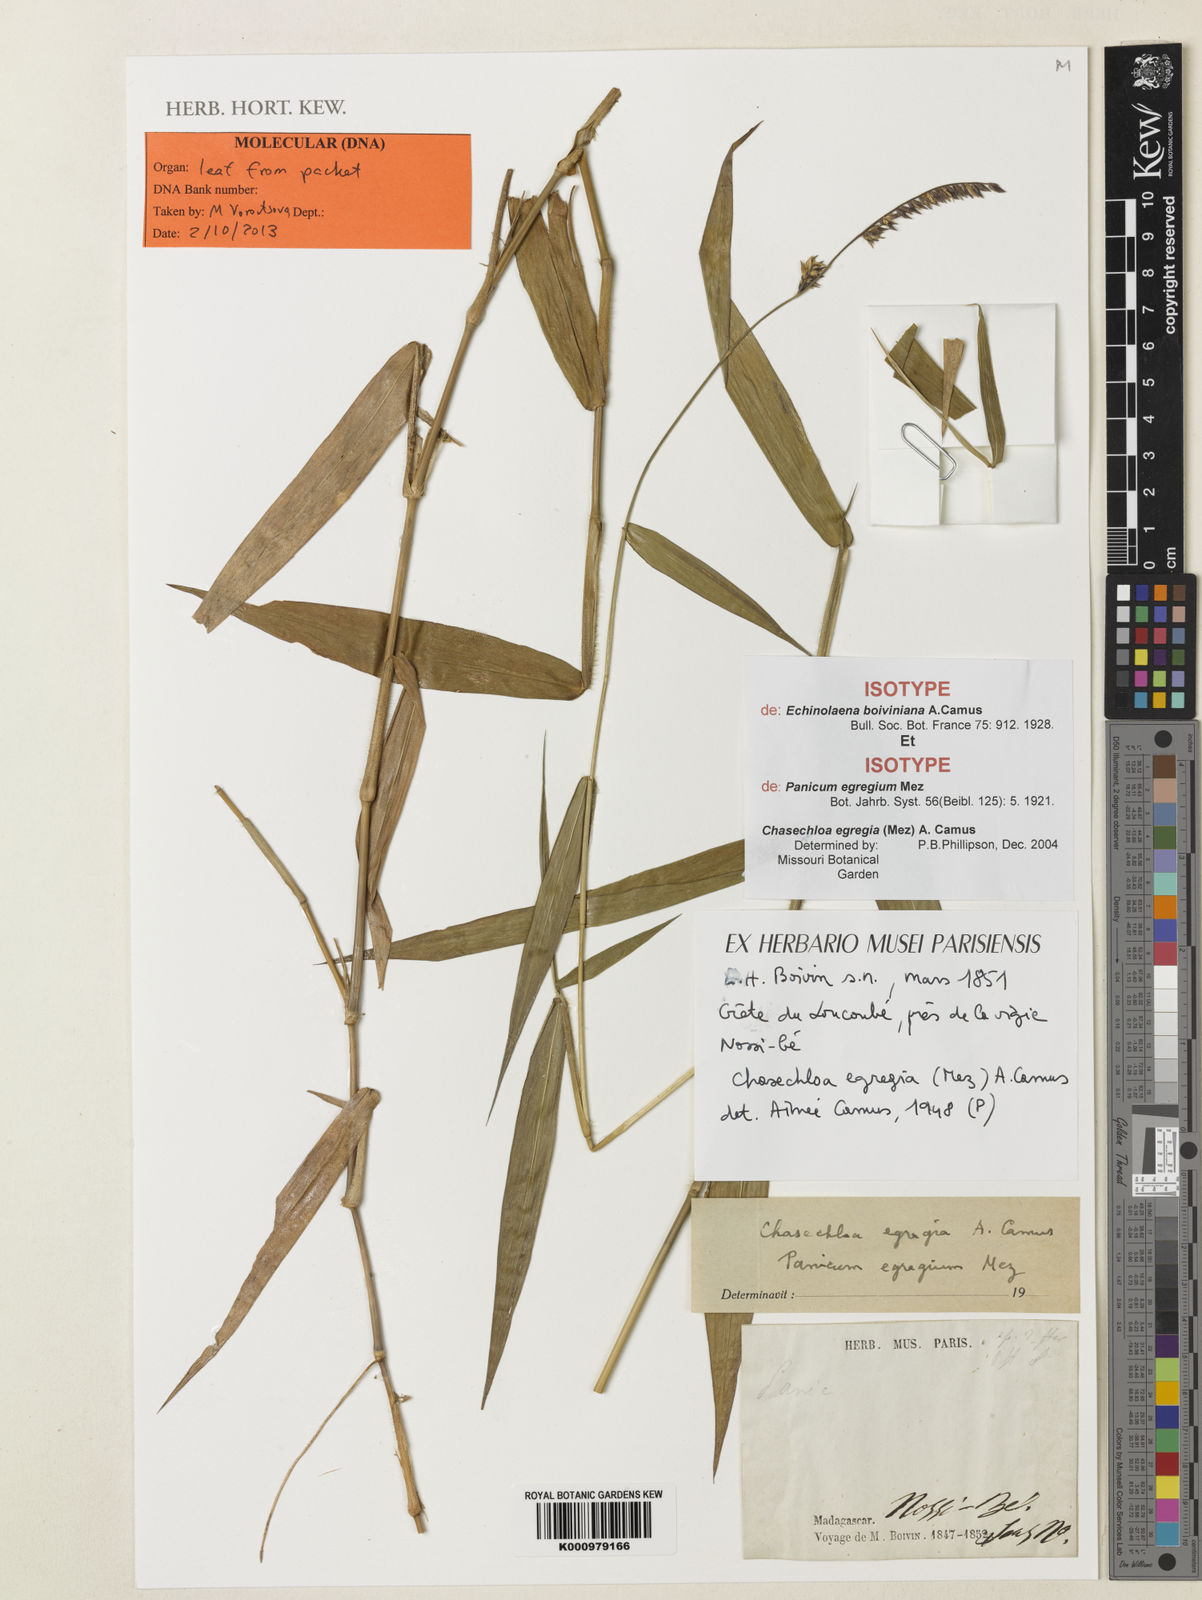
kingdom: Plantae
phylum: Tracheophyta
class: Liliopsida
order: Poales
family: Poaceae
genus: Chasechloa
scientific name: Chasechloa egregia
